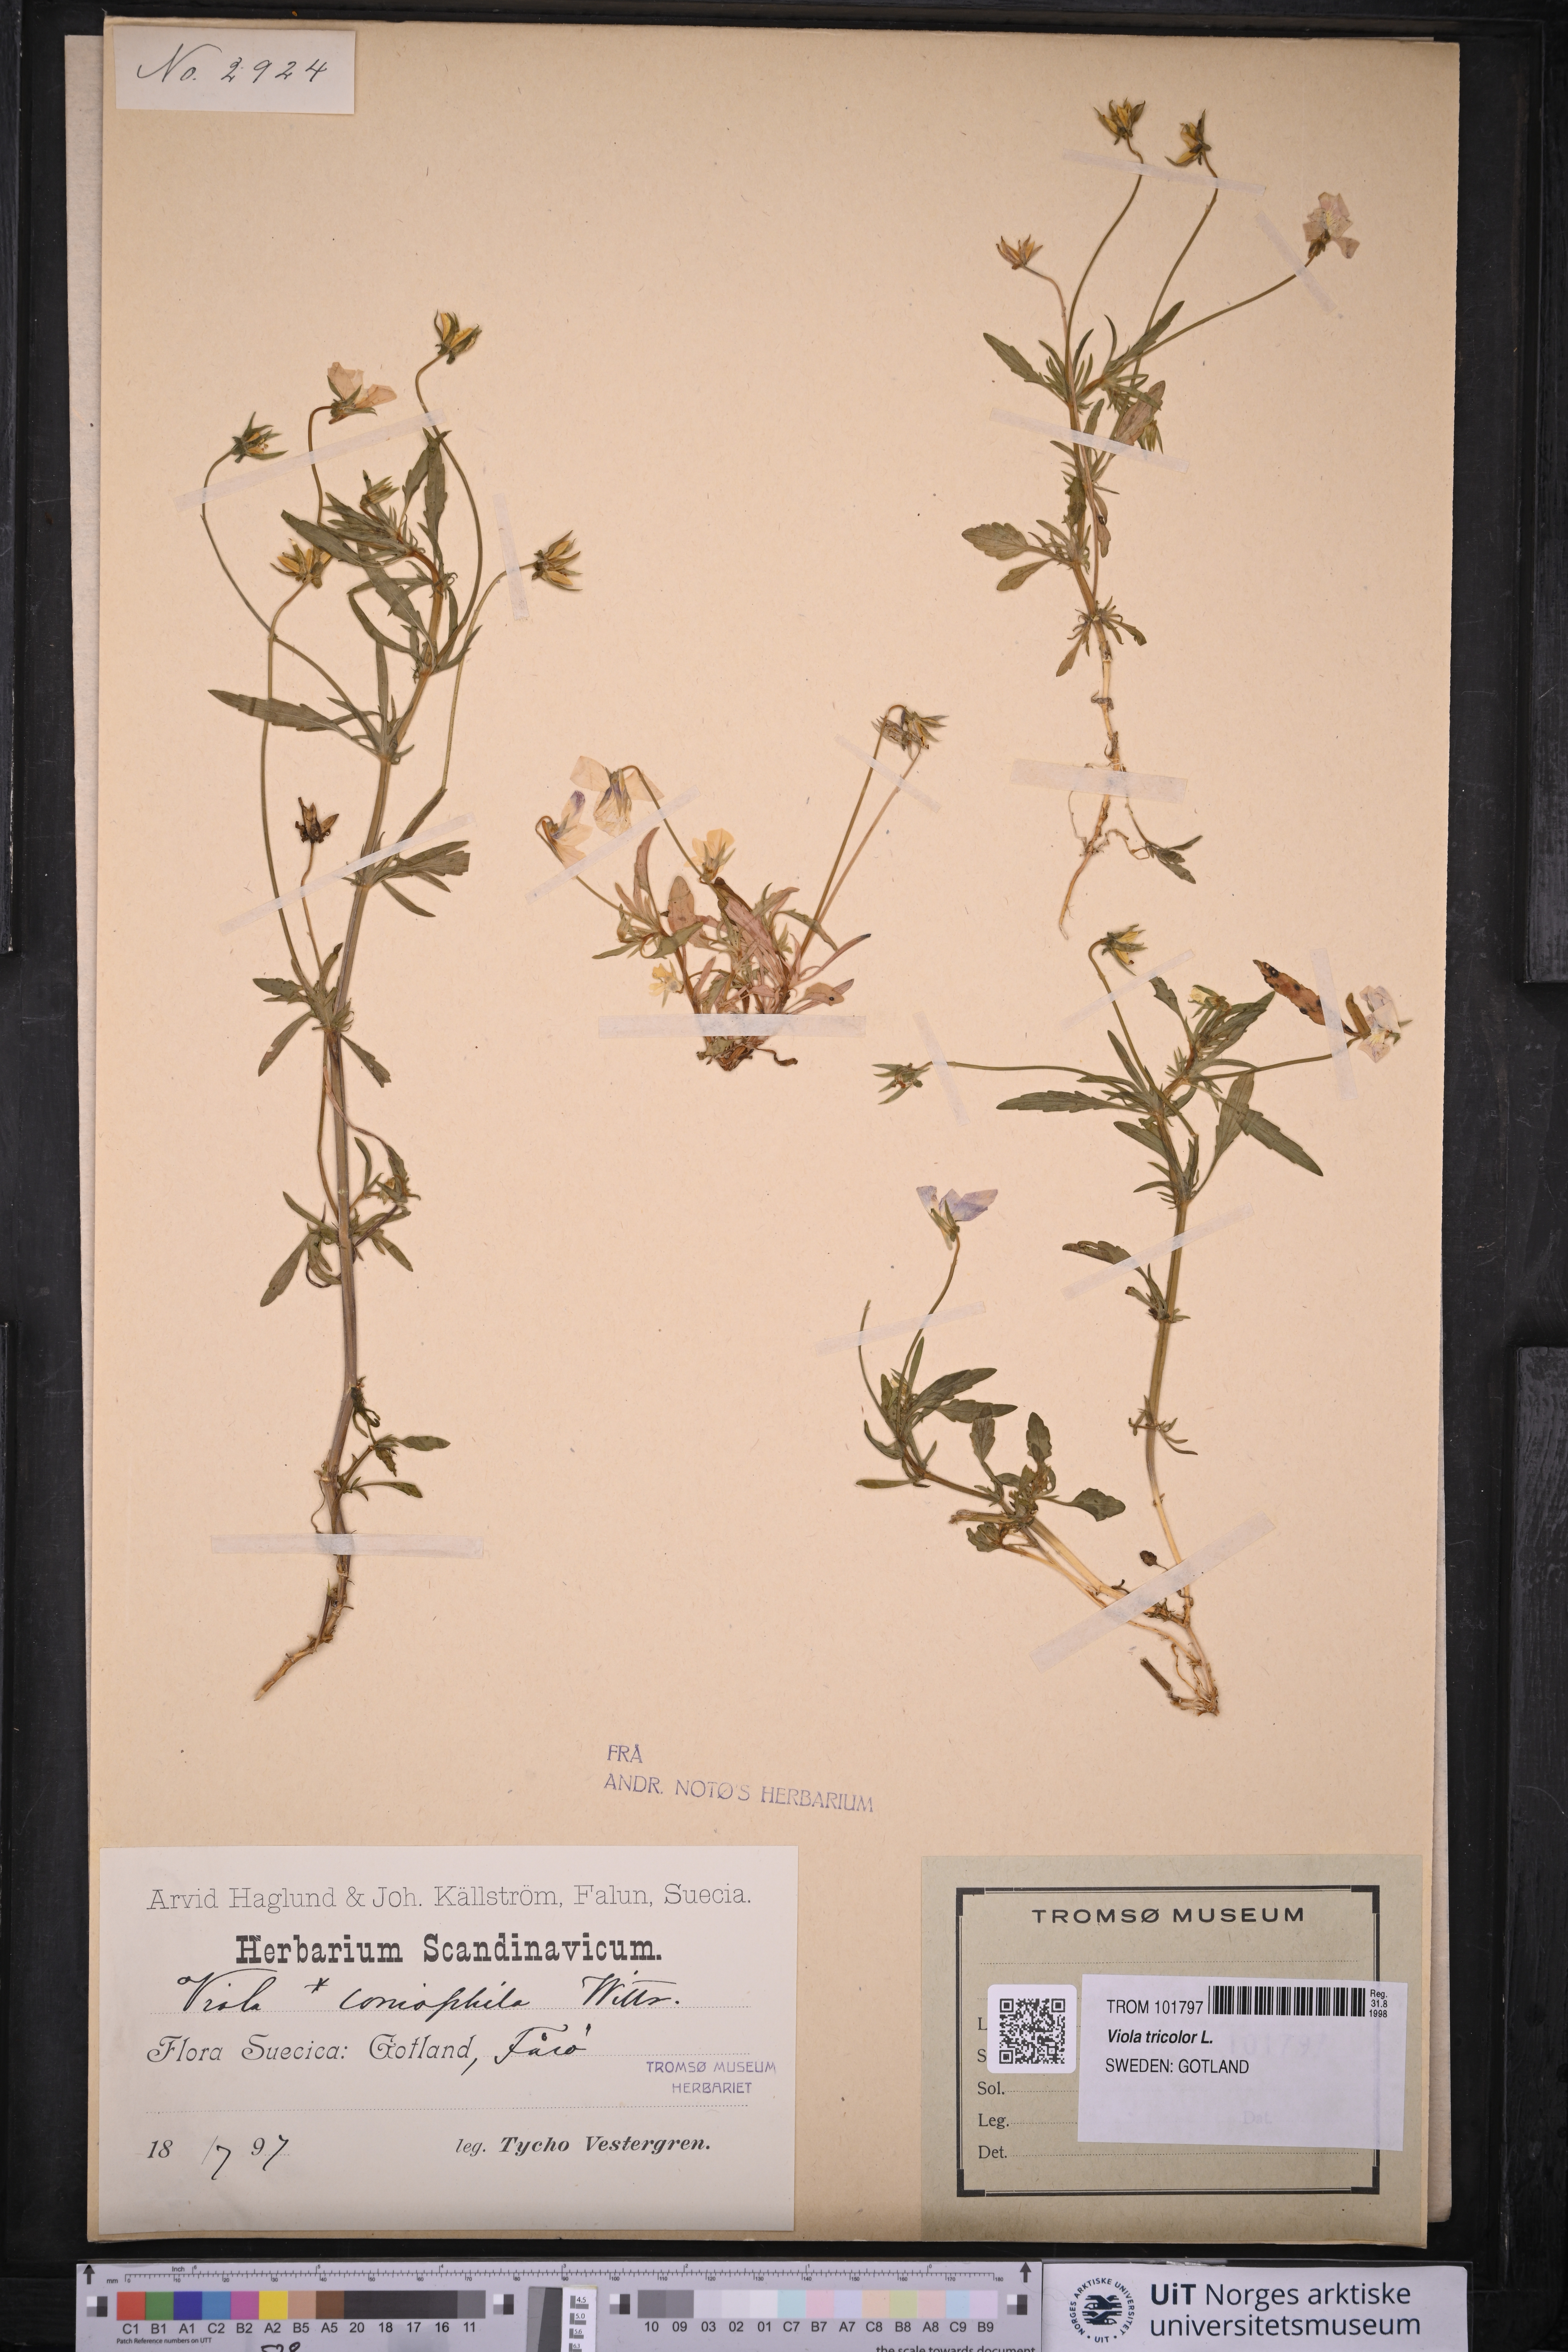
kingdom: Plantae
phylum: Tracheophyta
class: Magnoliopsida
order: Malpighiales
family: Violaceae
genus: Viola
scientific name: Viola tricolor
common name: Pansy
